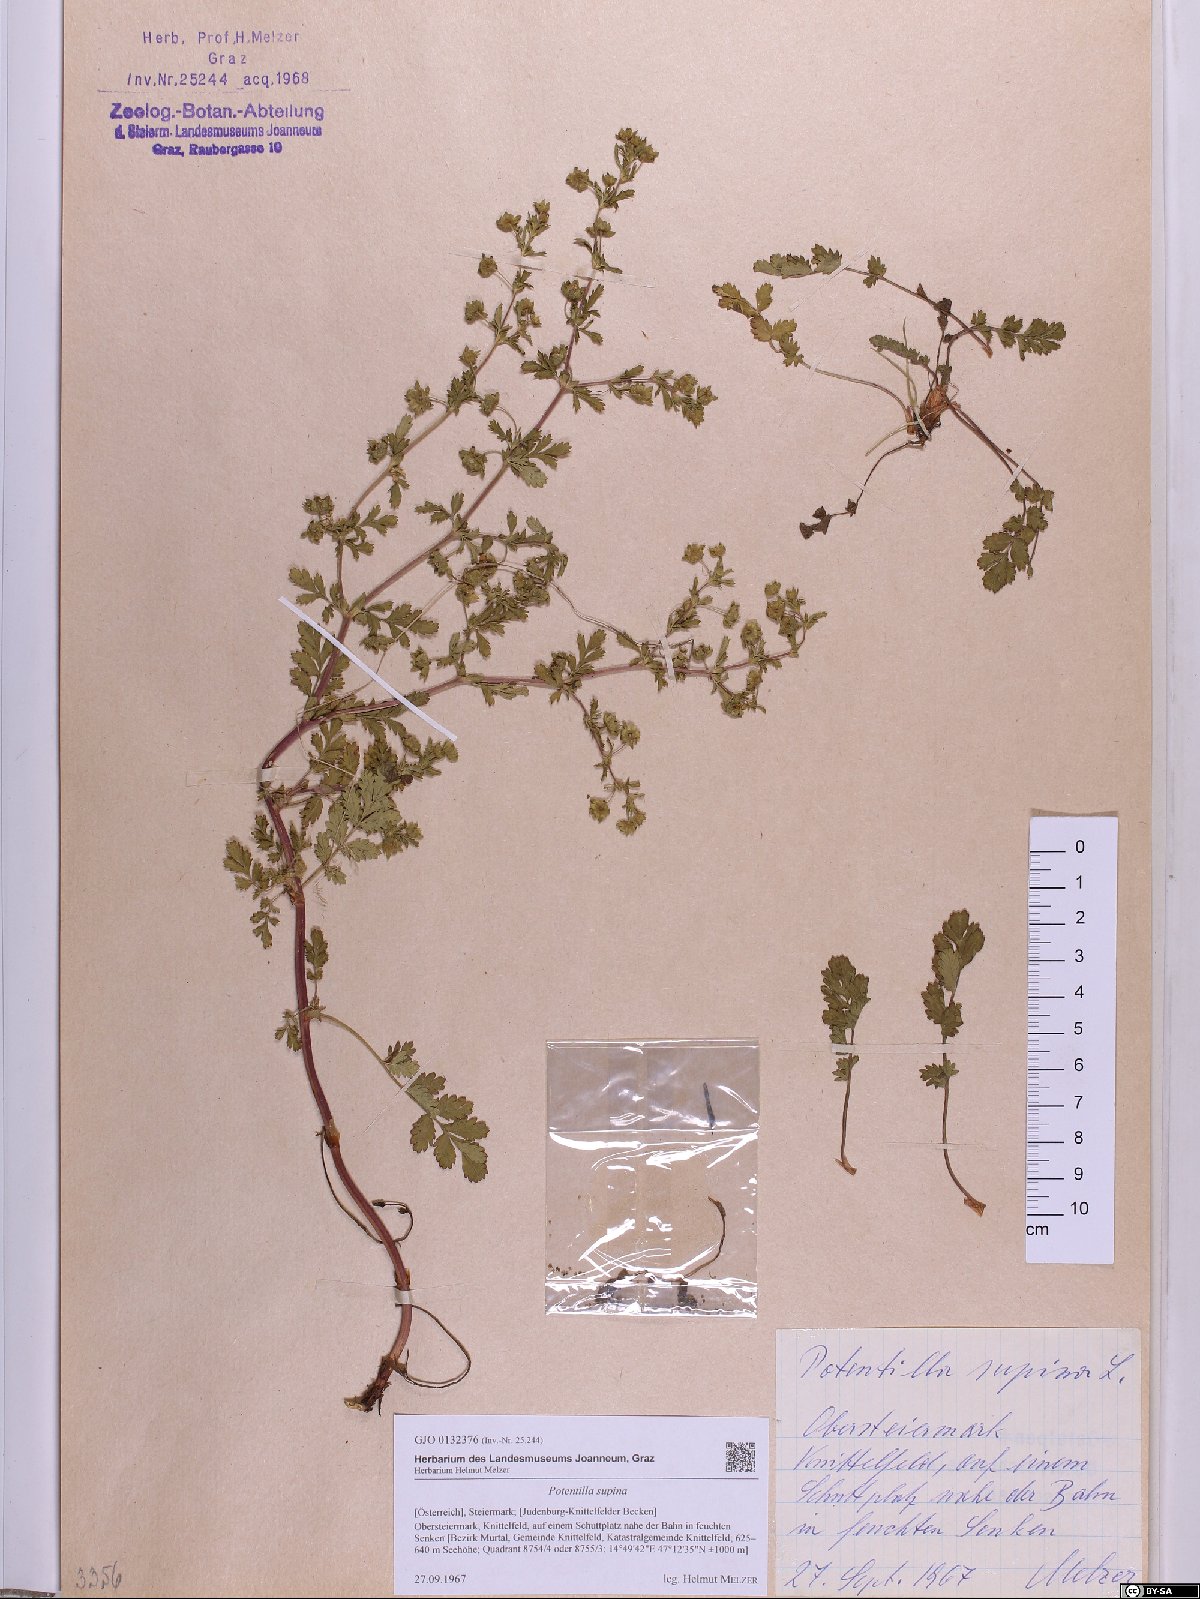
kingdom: Plantae
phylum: Tracheophyta
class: Magnoliopsida
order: Rosales
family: Rosaceae
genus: Potentilla
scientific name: Potentilla supina
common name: Prostrate cinquefoil
